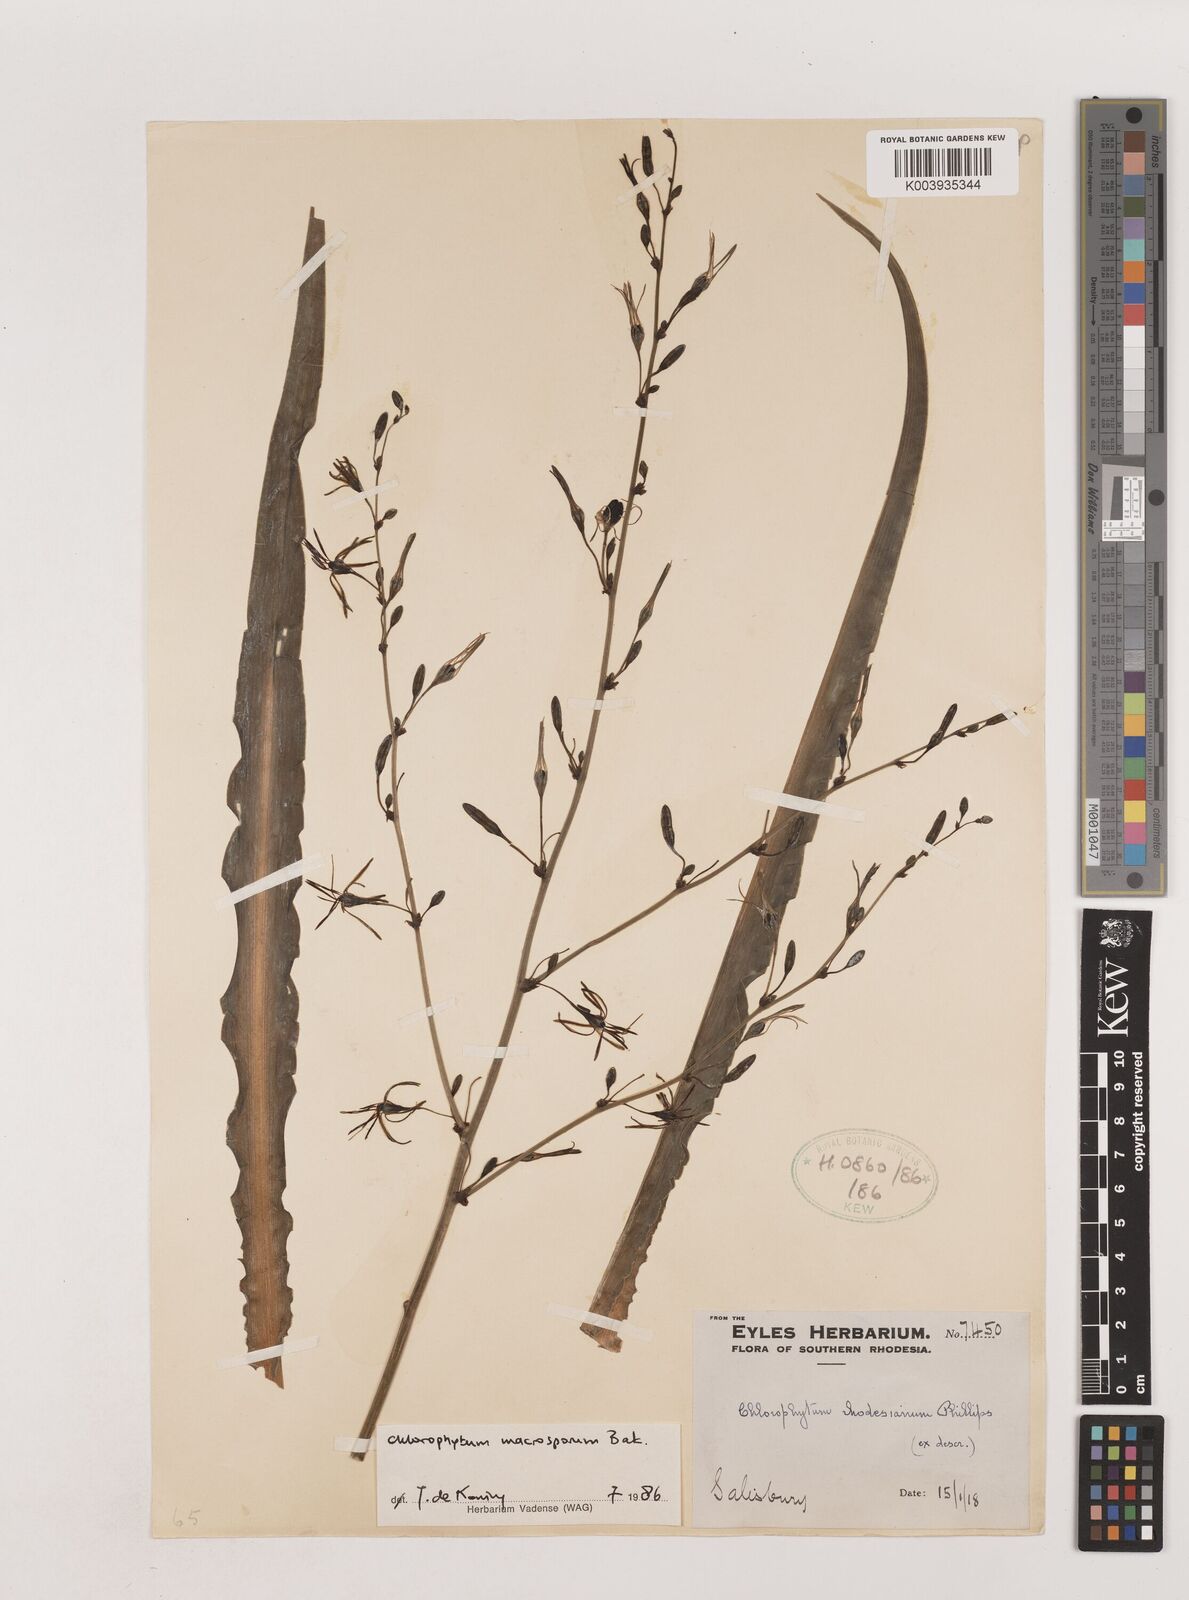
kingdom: Plantae
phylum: Tracheophyta
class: Liliopsida
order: Asparagales
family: Asparagaceae
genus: Chlorophytum
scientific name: Chlorophytum macrosporum
